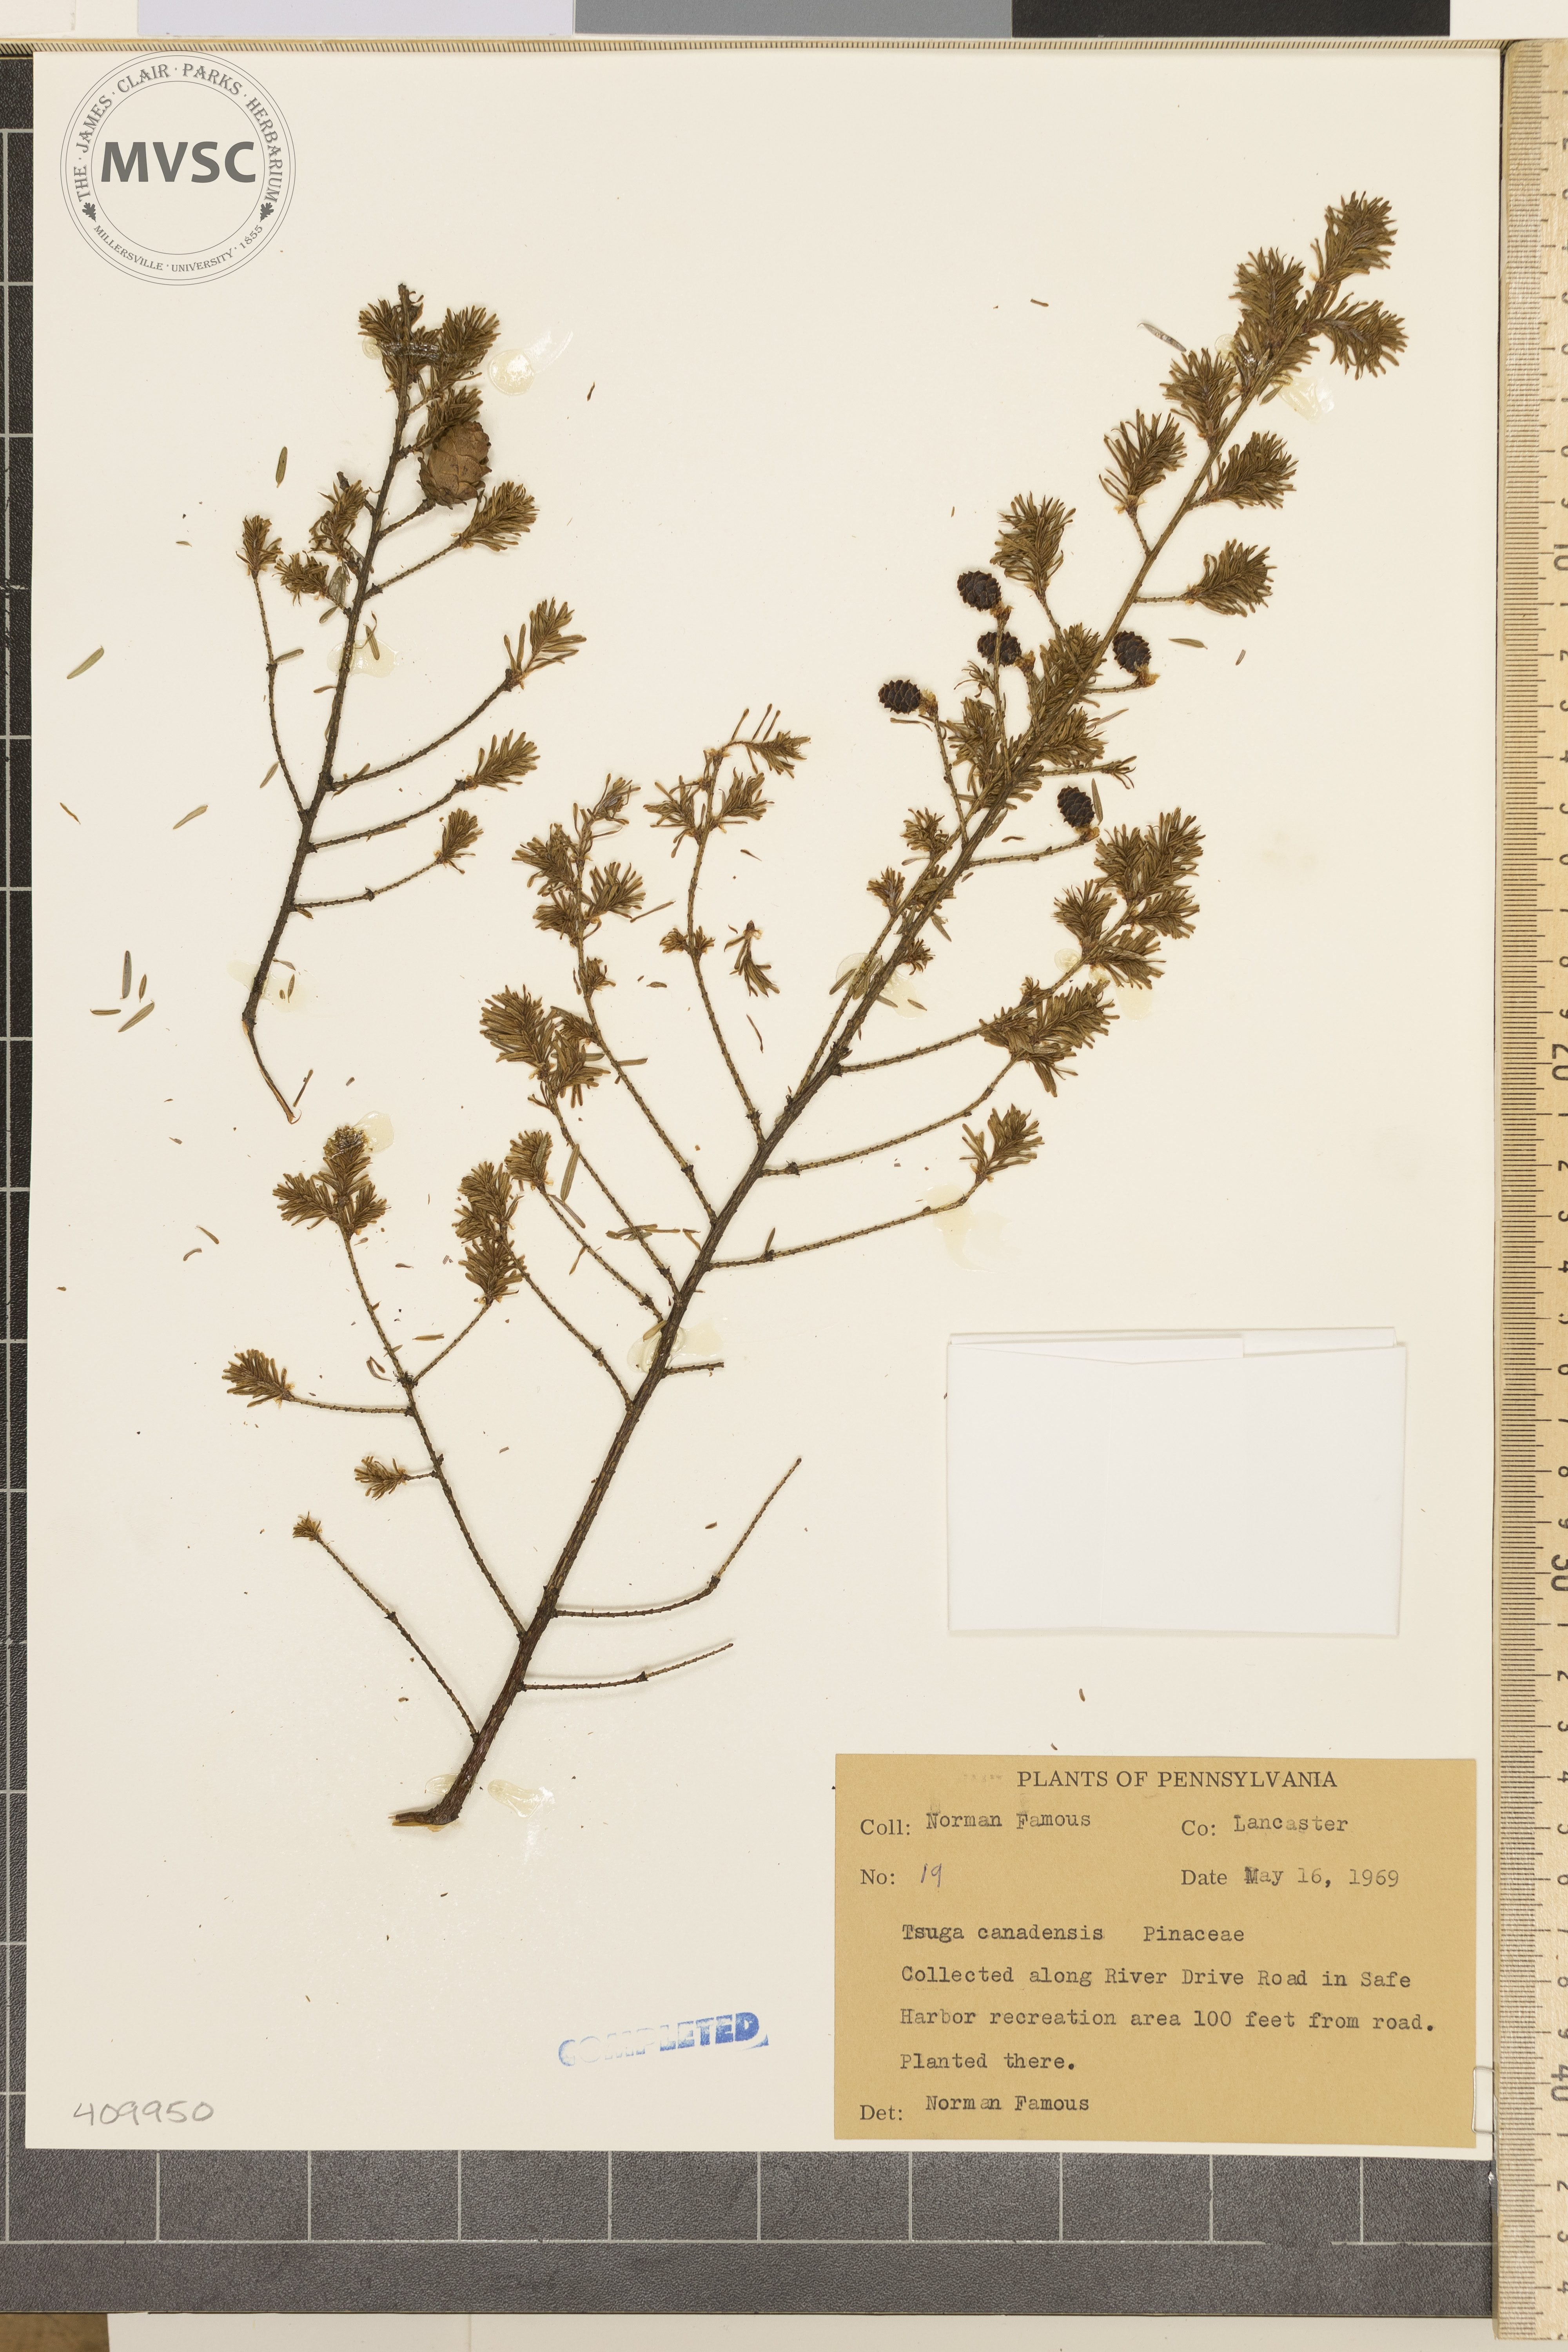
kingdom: Plantae
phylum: Tracheophyta
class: Pinopsida
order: Pinales
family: Pinaceae
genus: Tsuga
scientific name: Tsuga canadensis
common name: Eastern hemlock
